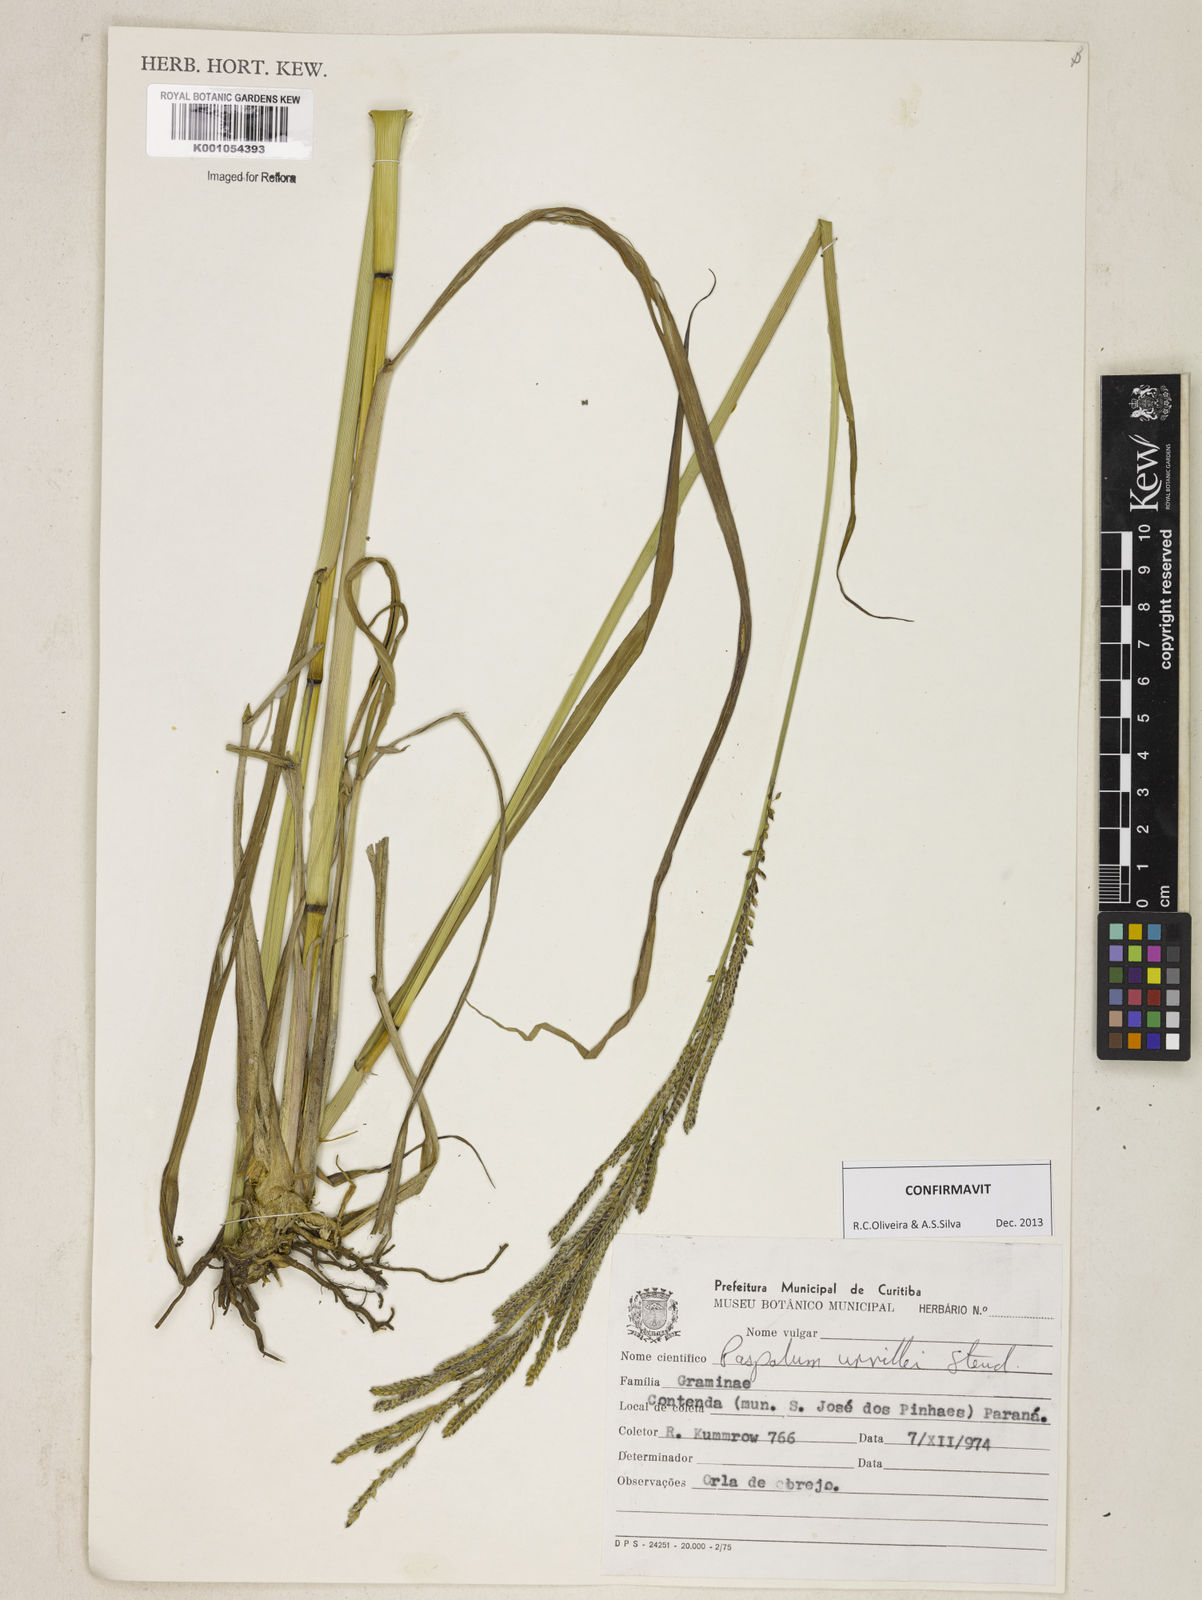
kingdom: Plantae
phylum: Tracheophyta
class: Liliopsida
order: Poales
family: Poaceae
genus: Paspalum
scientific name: Paspalum urvillei
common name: Vasey's grass
